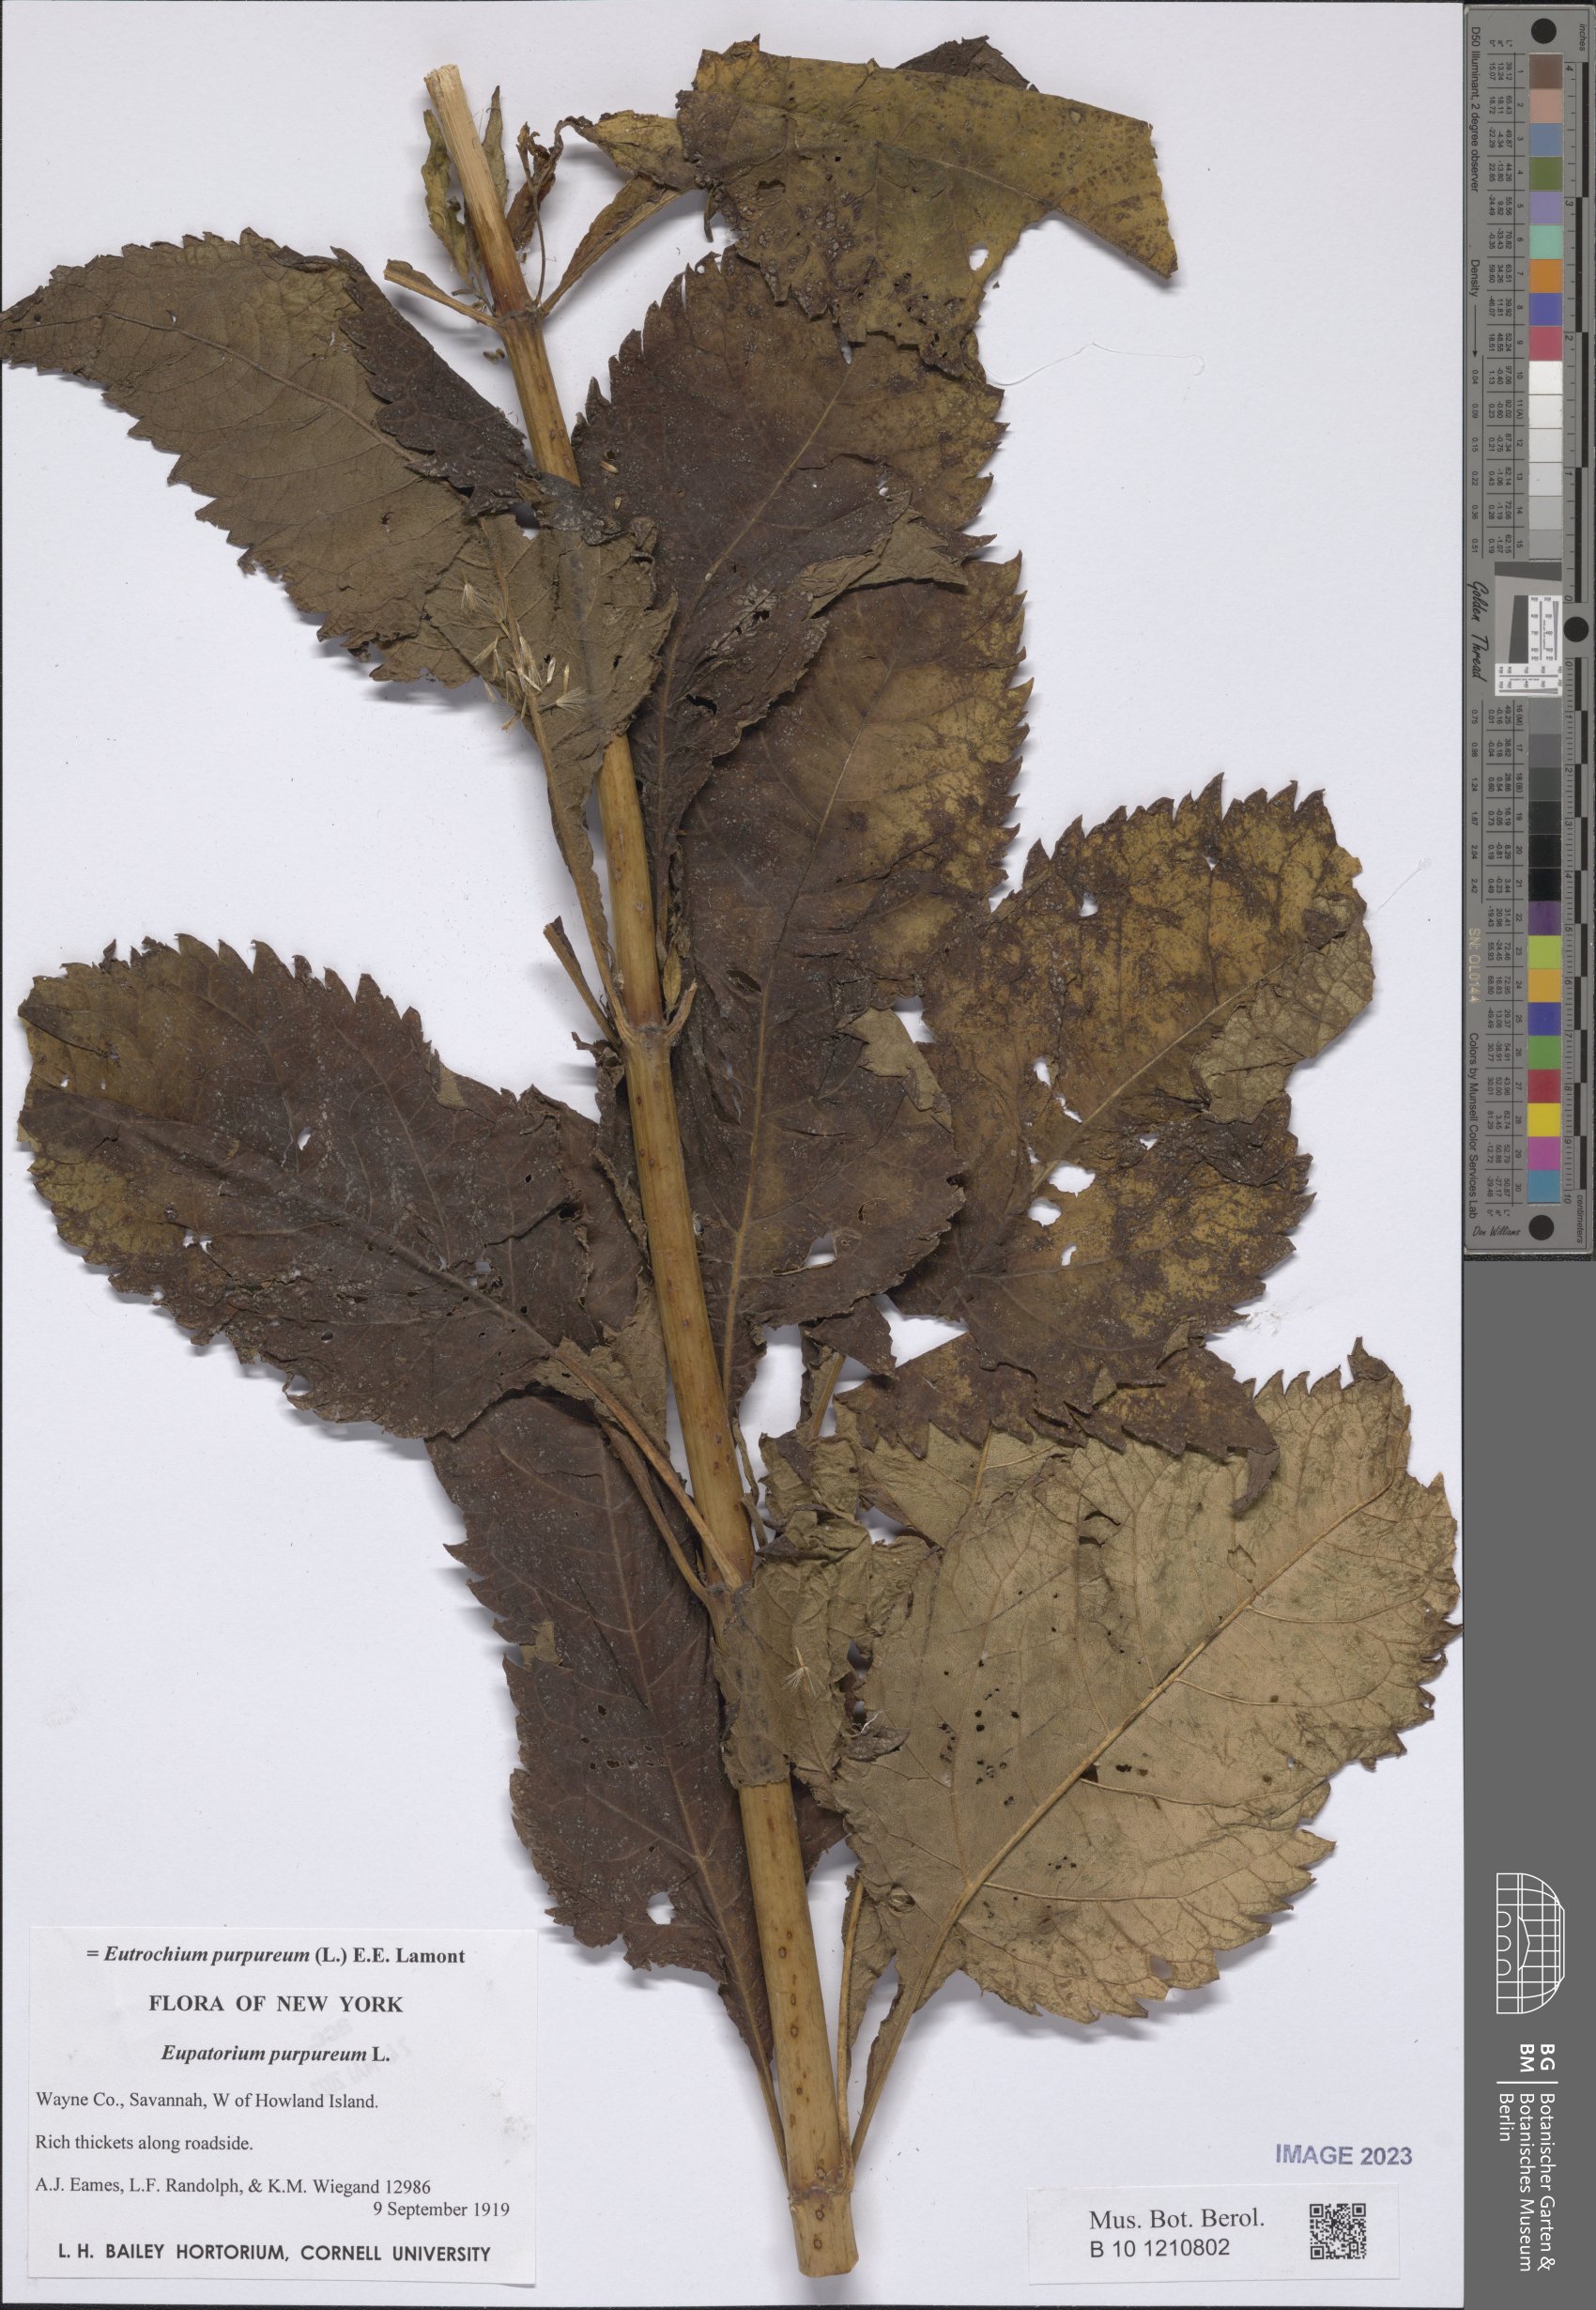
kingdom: Plantae
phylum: Tracheophyta
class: Magnoliopsida
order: Asterales
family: Asteraceae
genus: Eutrochium
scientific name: Eutrochium purpureum
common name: Gravelroot
